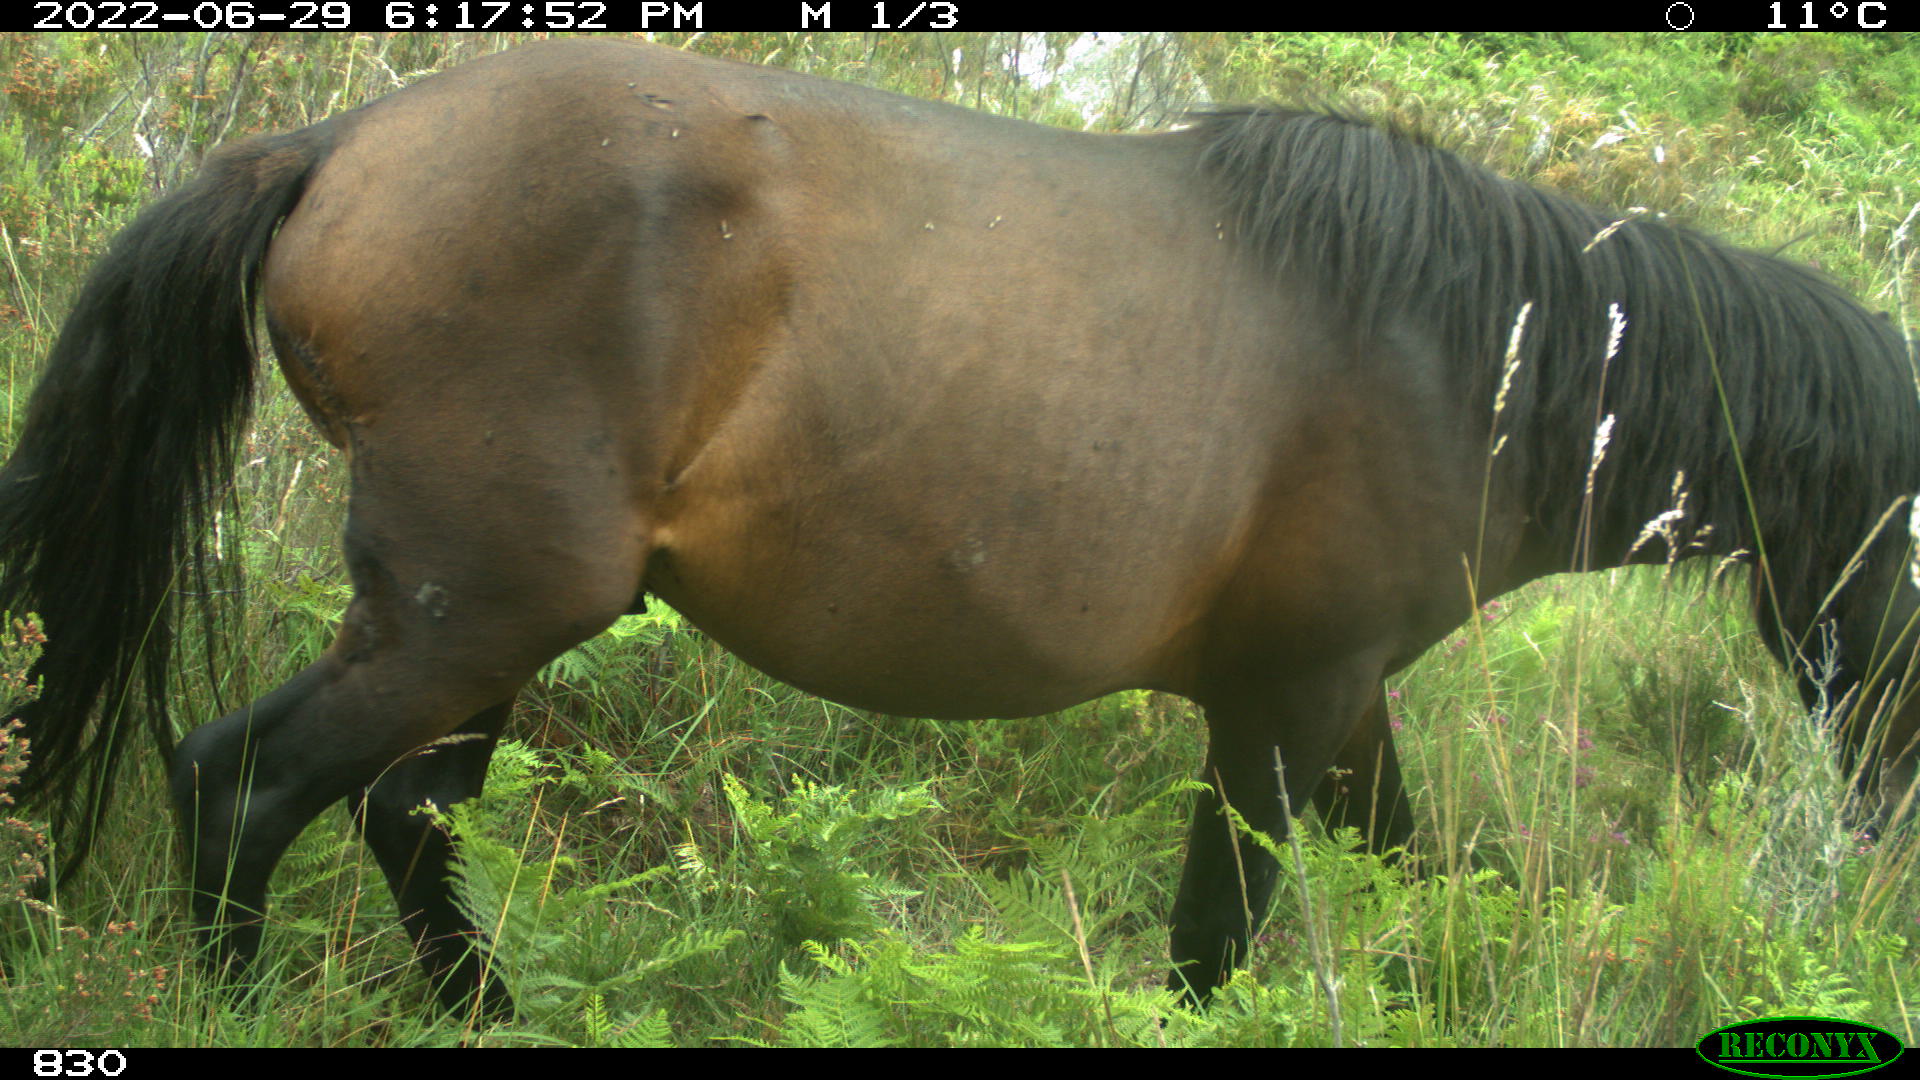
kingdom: Animalia
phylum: Chordata
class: Mammalia
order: Perissodactyla
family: Equidae
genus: Equus
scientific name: Equus caballus
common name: Horse
